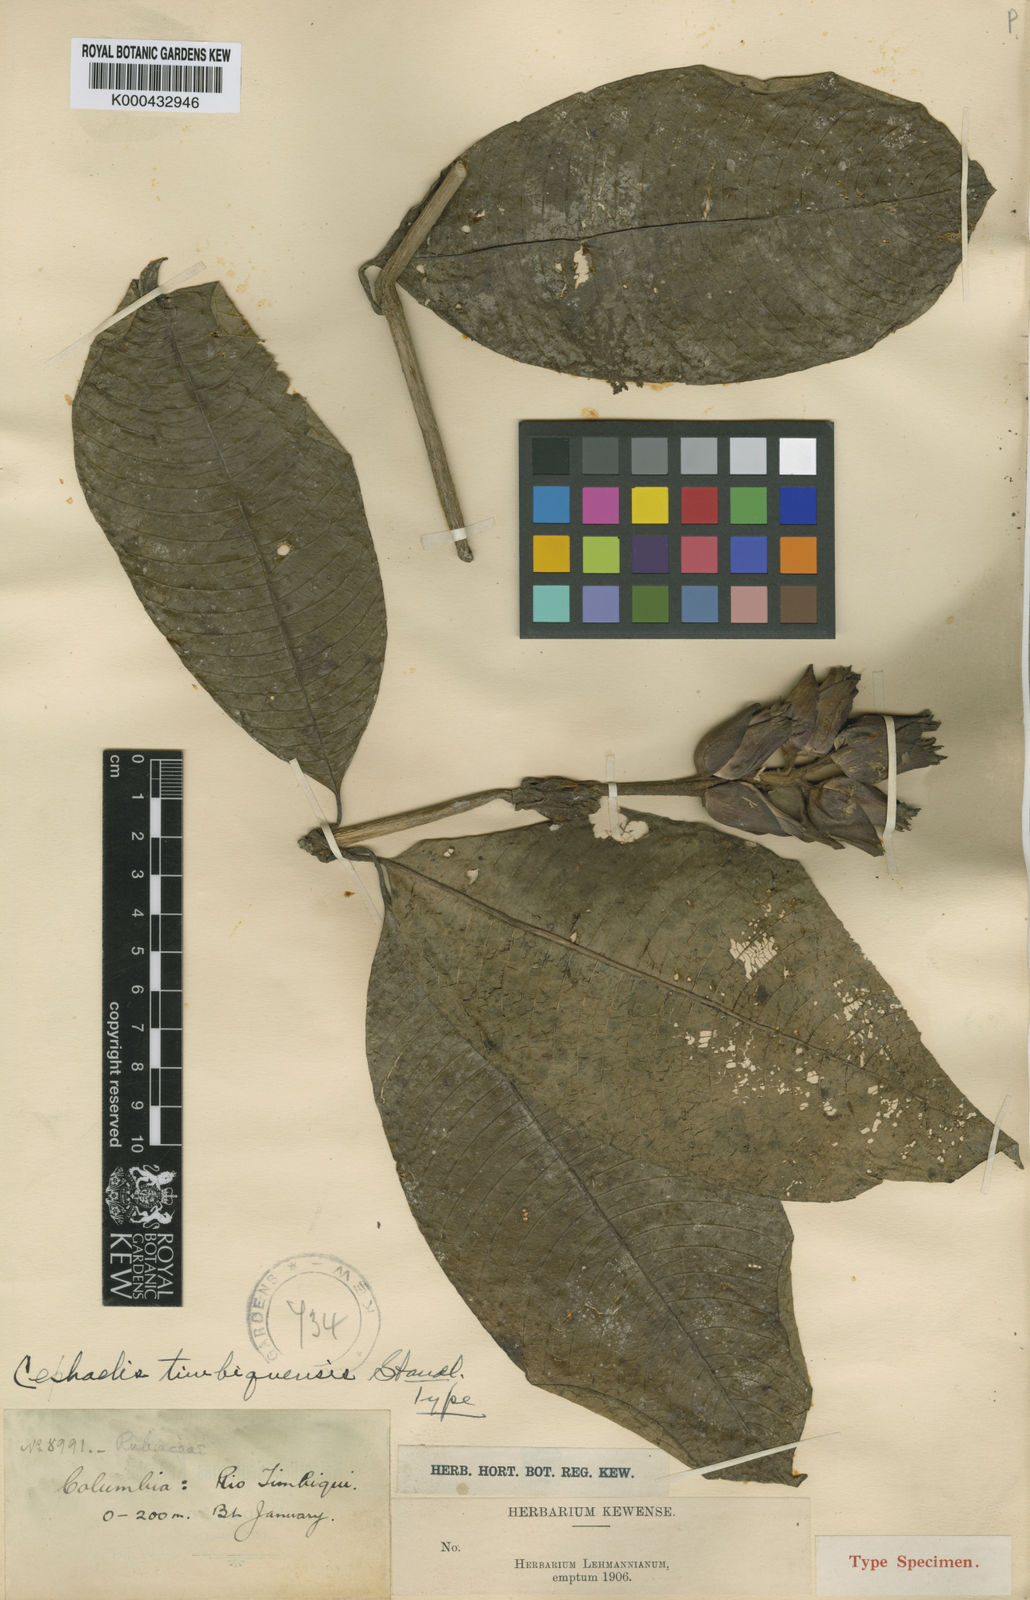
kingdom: Plantae
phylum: Tracheophyta
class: Magnoliopsida
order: Gentianales
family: Rubiaceae
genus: Palicourea
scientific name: Palicourea timbiquensis
